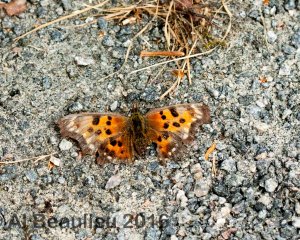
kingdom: Animalia
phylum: Arthropoda
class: Insecta
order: Lepidoptera
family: Nymphalidae
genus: Polygonia
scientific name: Polygonia satyrus
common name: Satyr Comma
